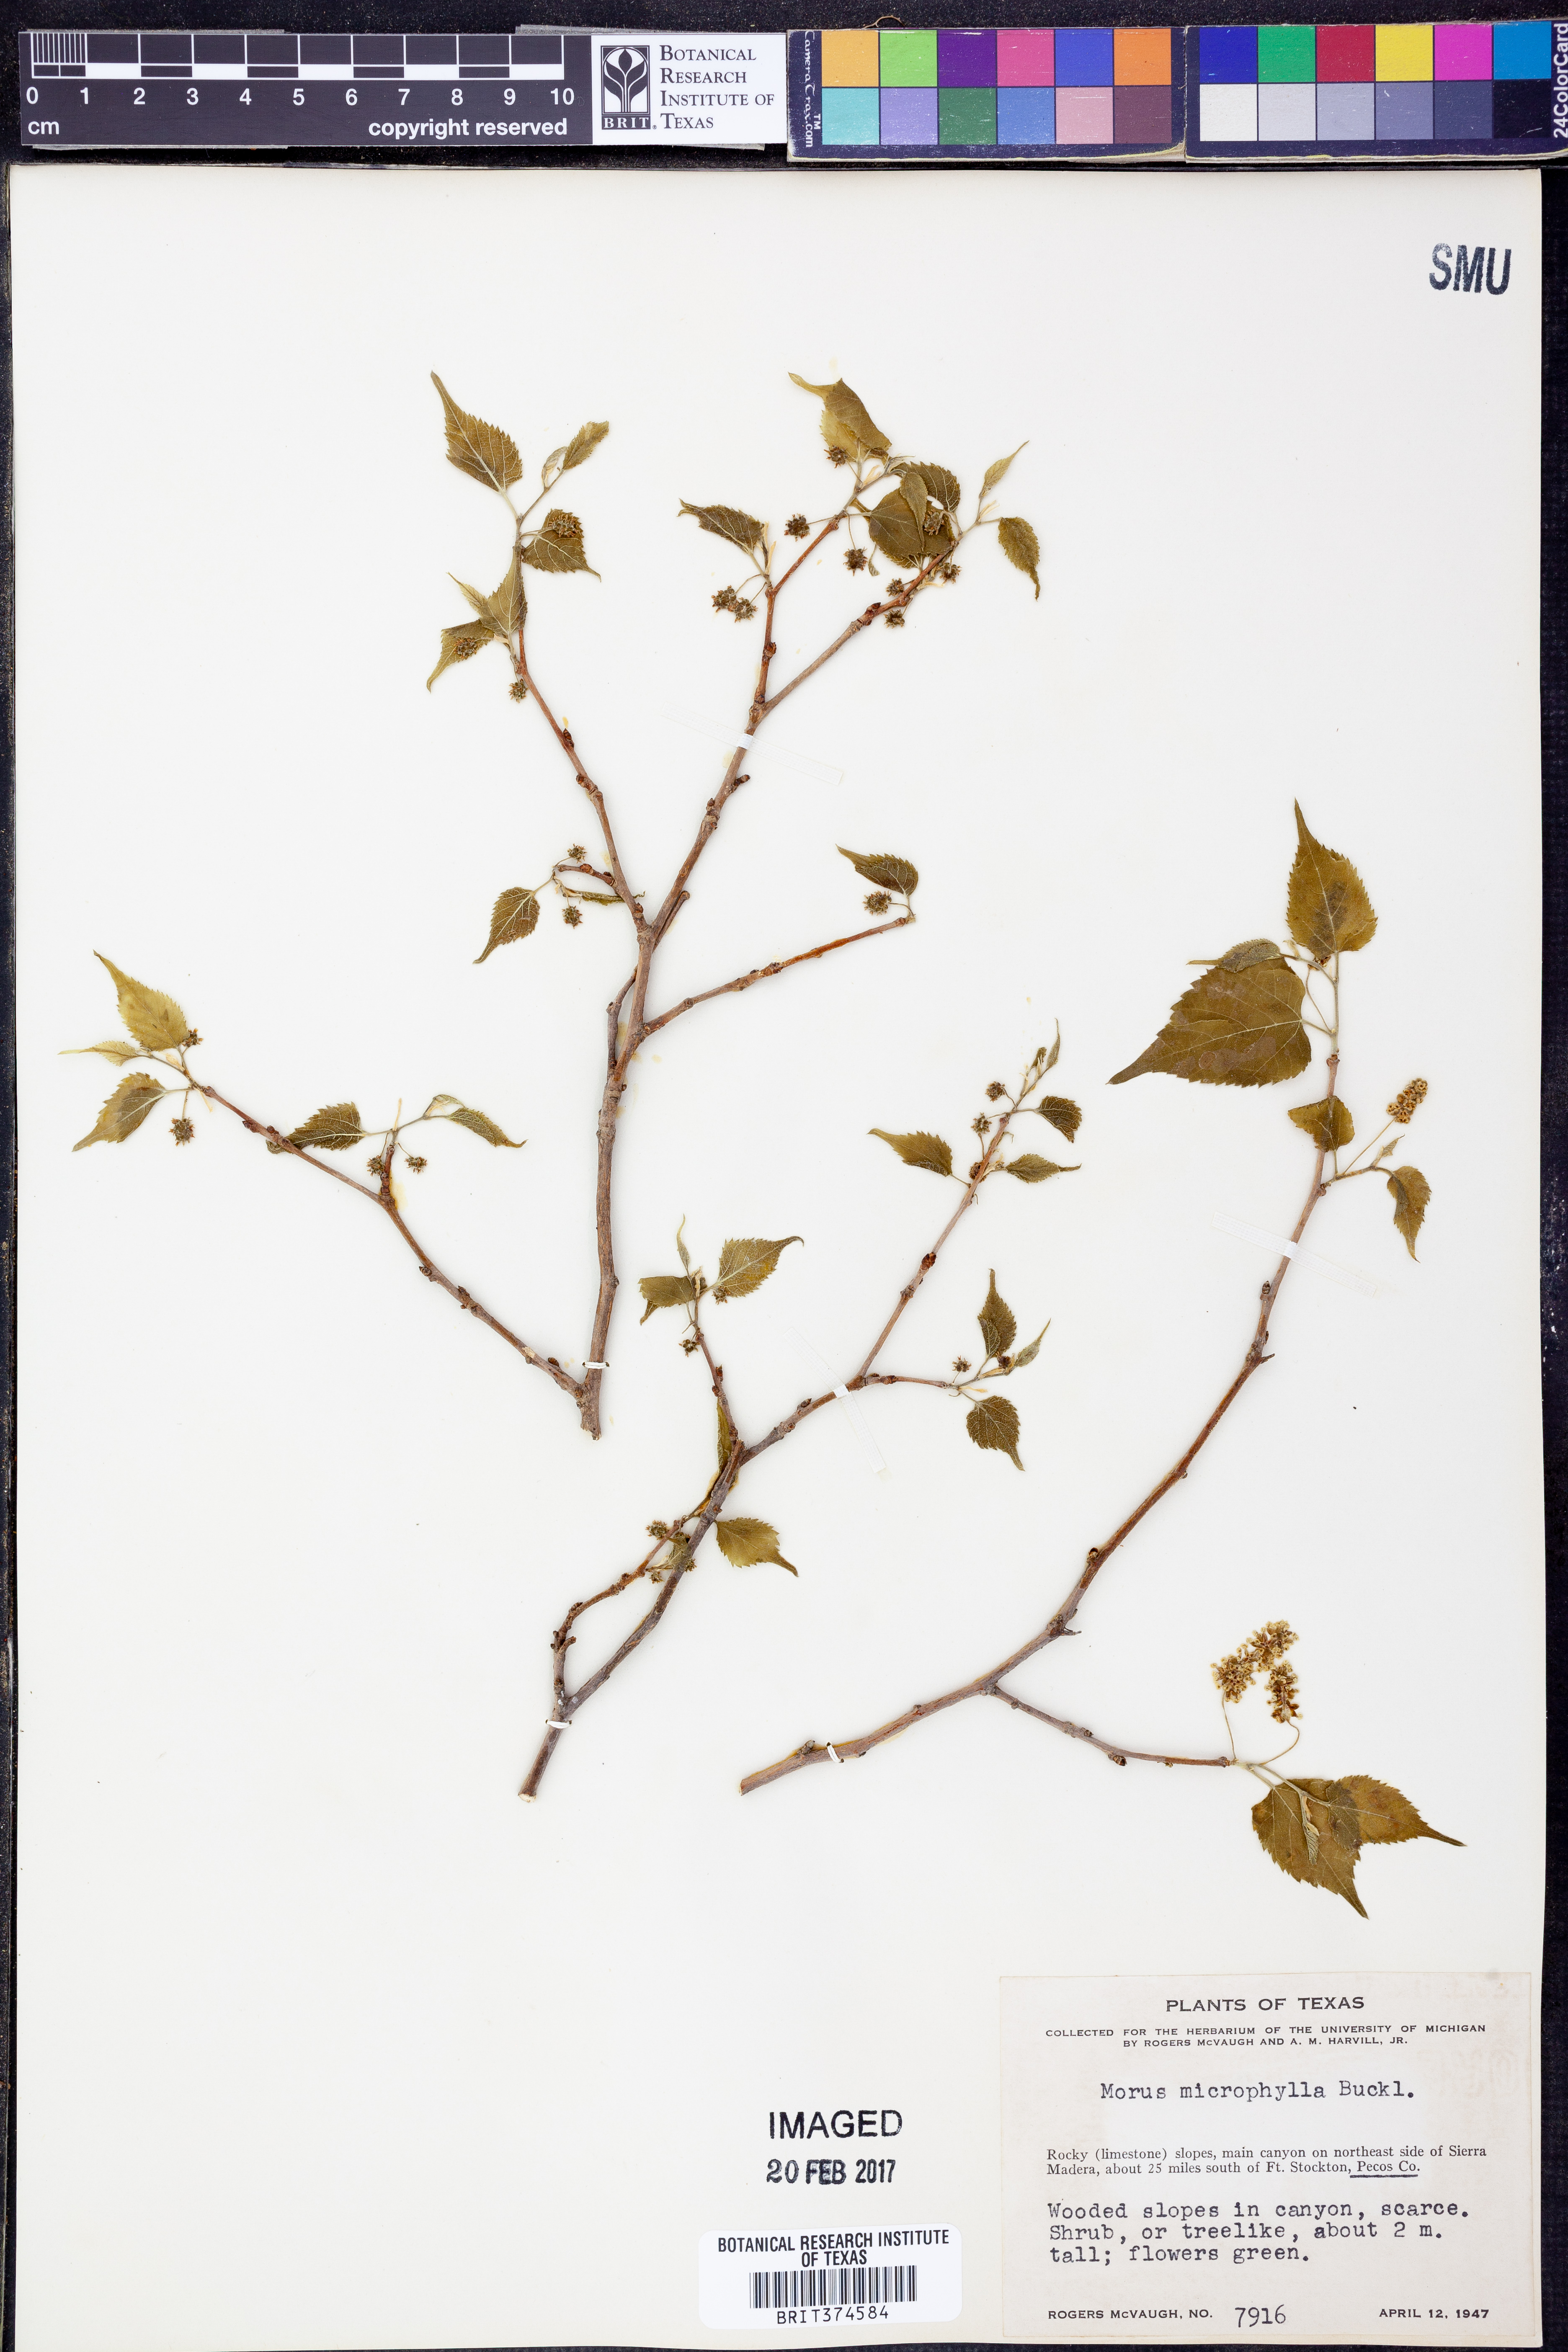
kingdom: Plantae
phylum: Tracheophyta
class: Magnoliopsida
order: Rosales
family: Moraceae
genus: Morus
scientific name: Morus microphylla
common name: Mexican mulberry
